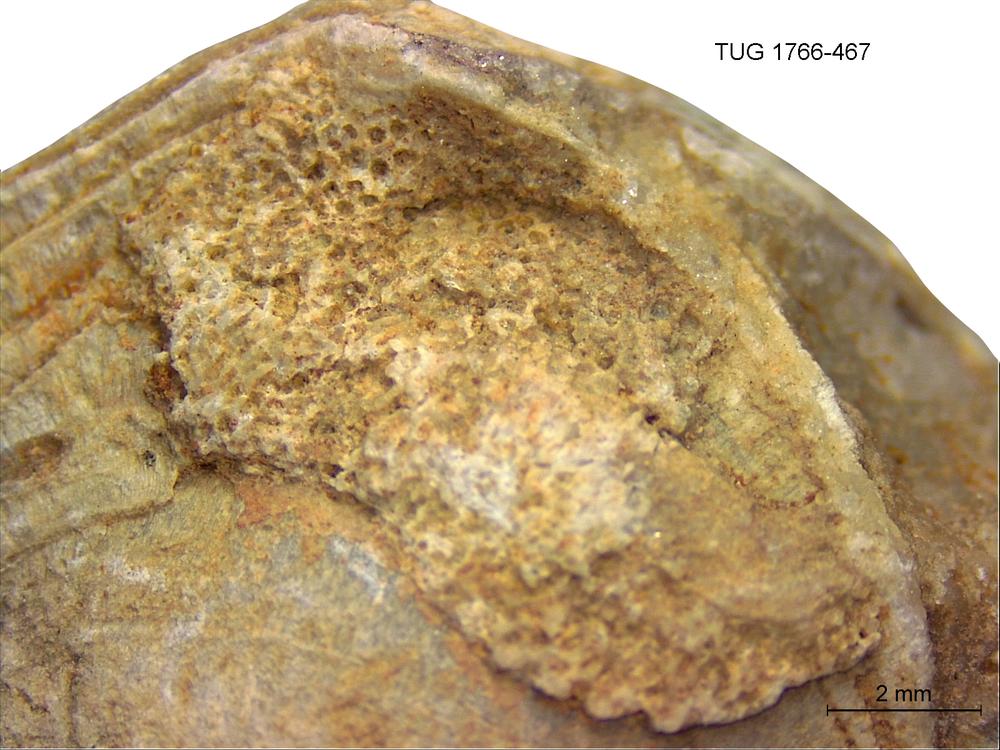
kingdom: Animalia
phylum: Bryozoa
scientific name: Bryozoa
